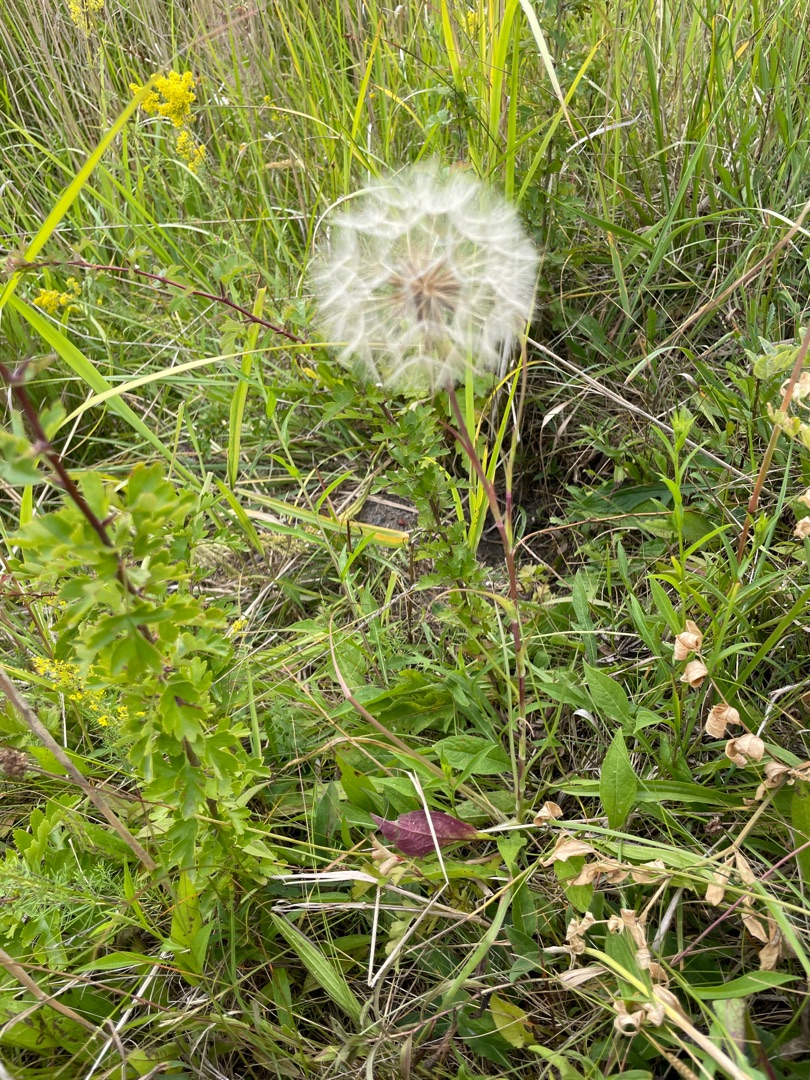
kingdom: Plantae
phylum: Tracheophyta
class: Magnoliopsida
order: Asterales
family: Asteraceae
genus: Tragopogon
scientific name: Tragopogon pratensis
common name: Gedeskæg
